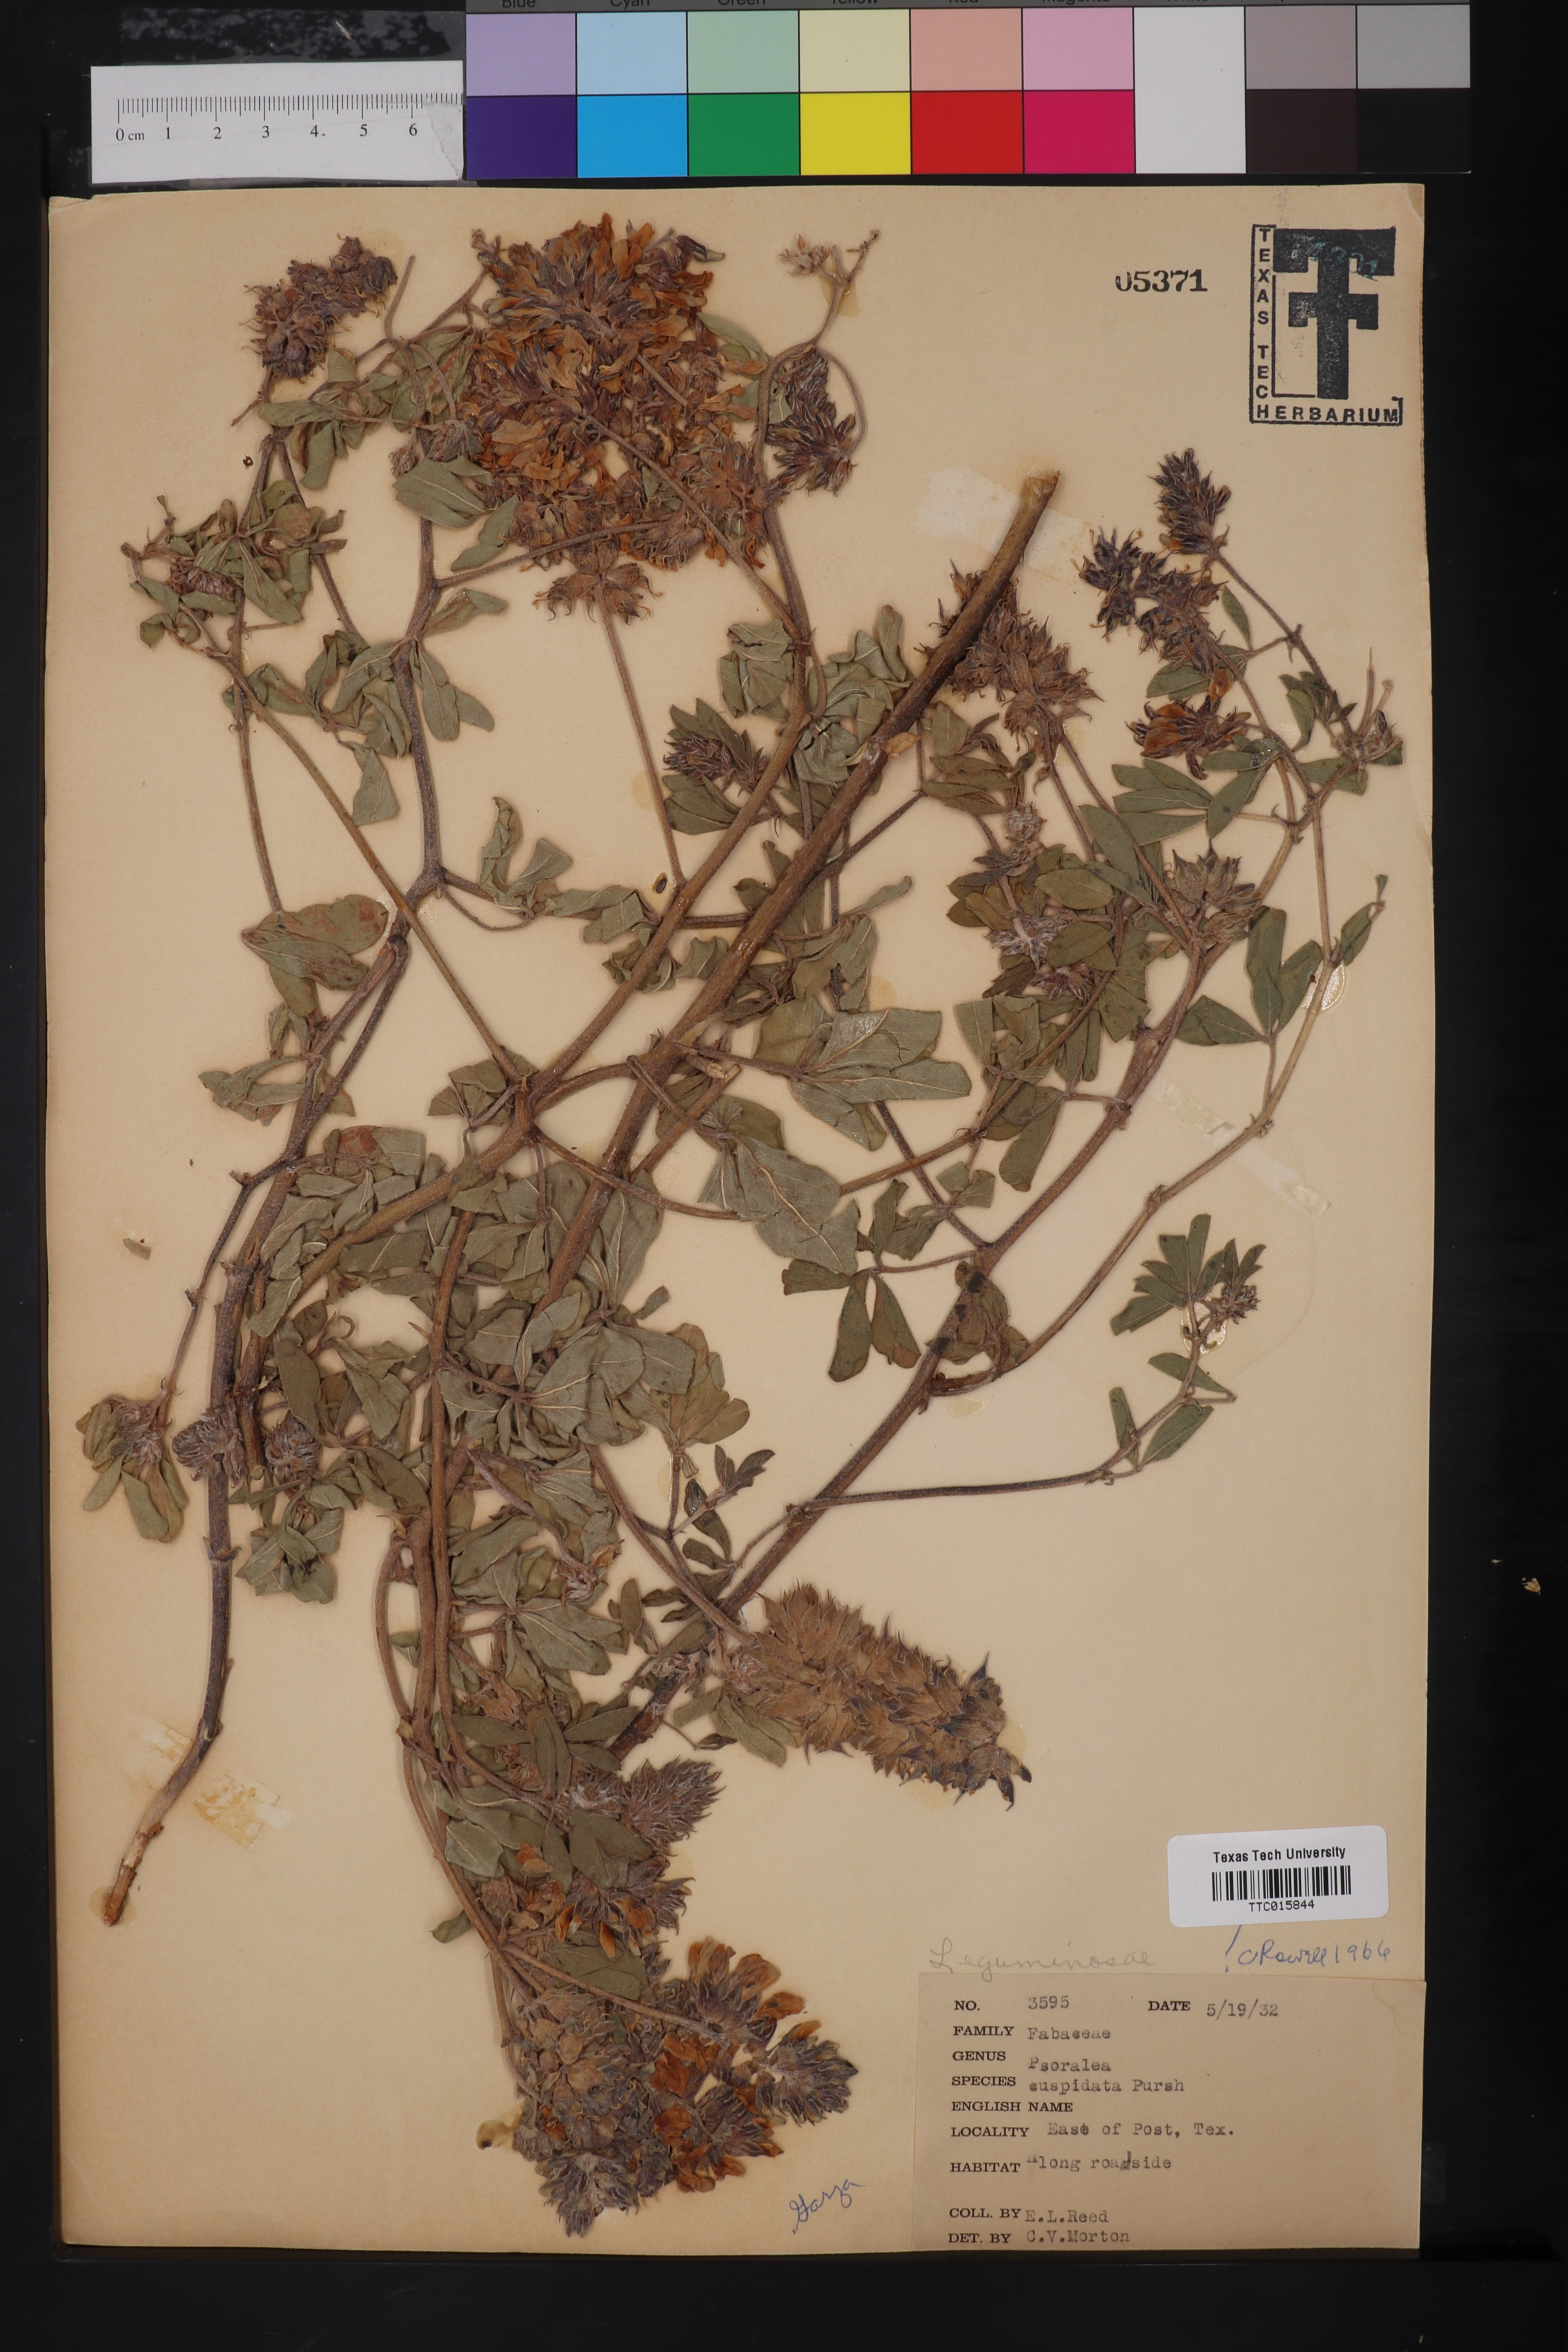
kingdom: Plantae
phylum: Tracheophyta
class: Magnoliopsida
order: Fabales
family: Fabaceae
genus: Pediomelum
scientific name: Pediomelum cuspidatum
